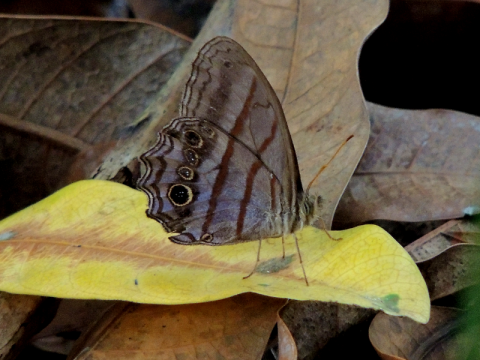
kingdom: Animalia
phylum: Arthropoda
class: Insecta
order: Lepidoptera
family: Nymphalidae
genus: Magneuptychia
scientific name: Magneuptychia libye
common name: Blue-gray Satyr
